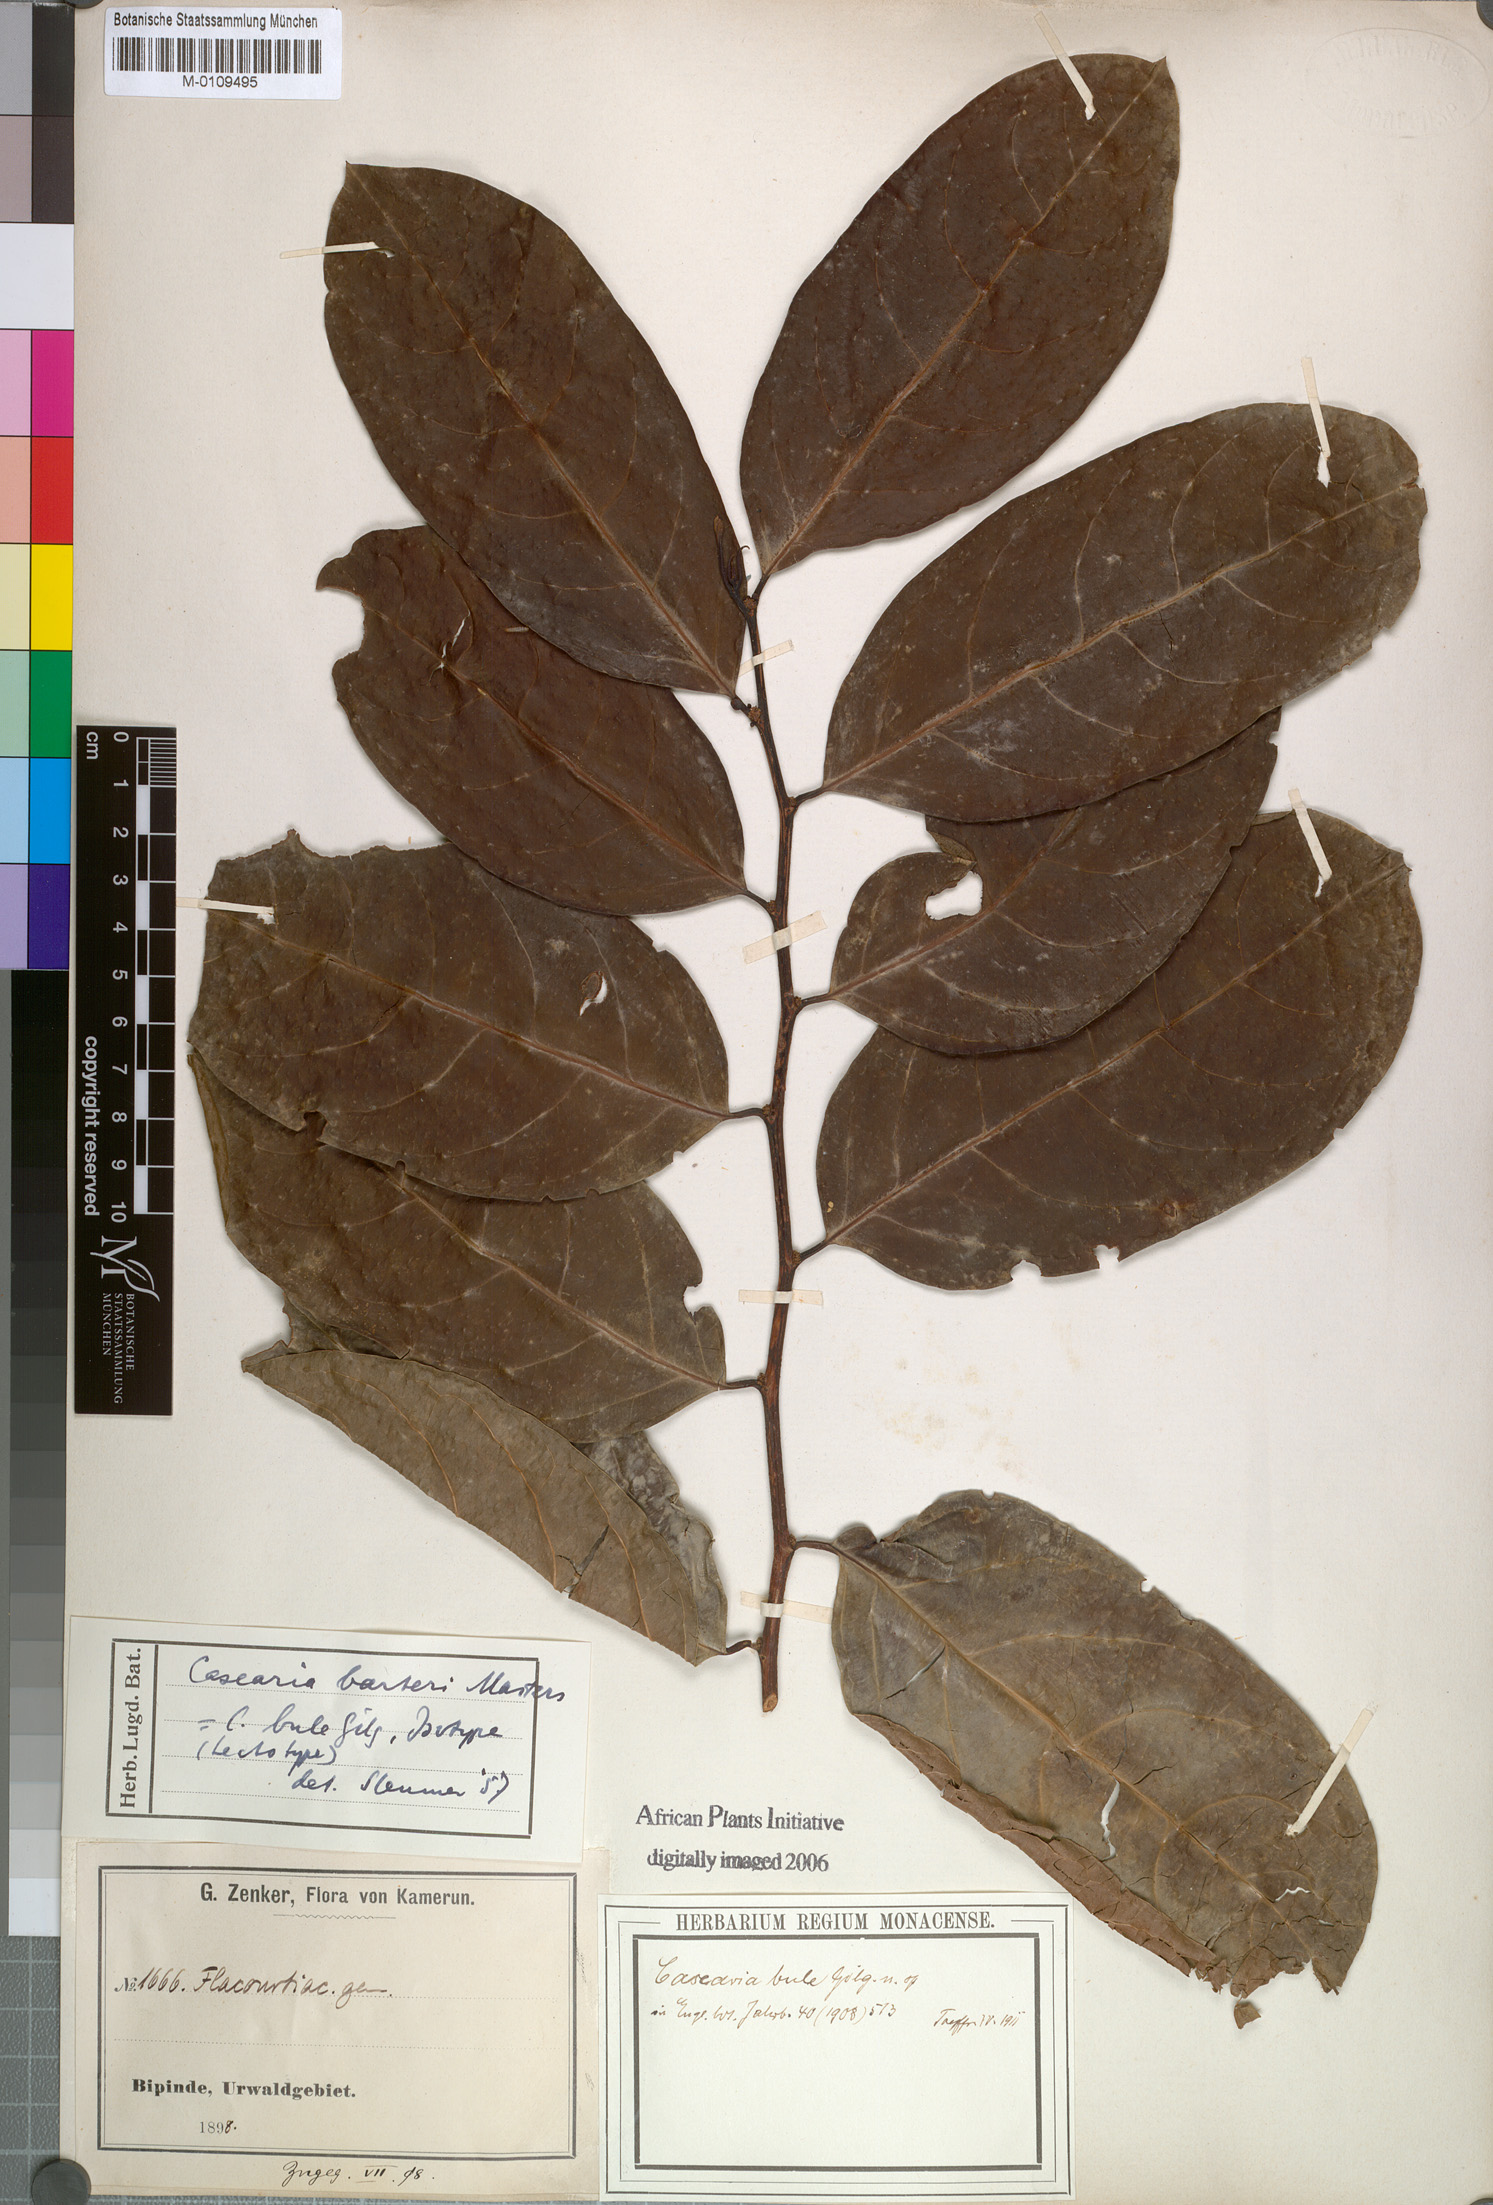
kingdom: Plantae
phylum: Tracheophyta
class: Magnoliopsida
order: Malpighiales
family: Salicaceae
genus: Casearia
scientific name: Casearia barteri
